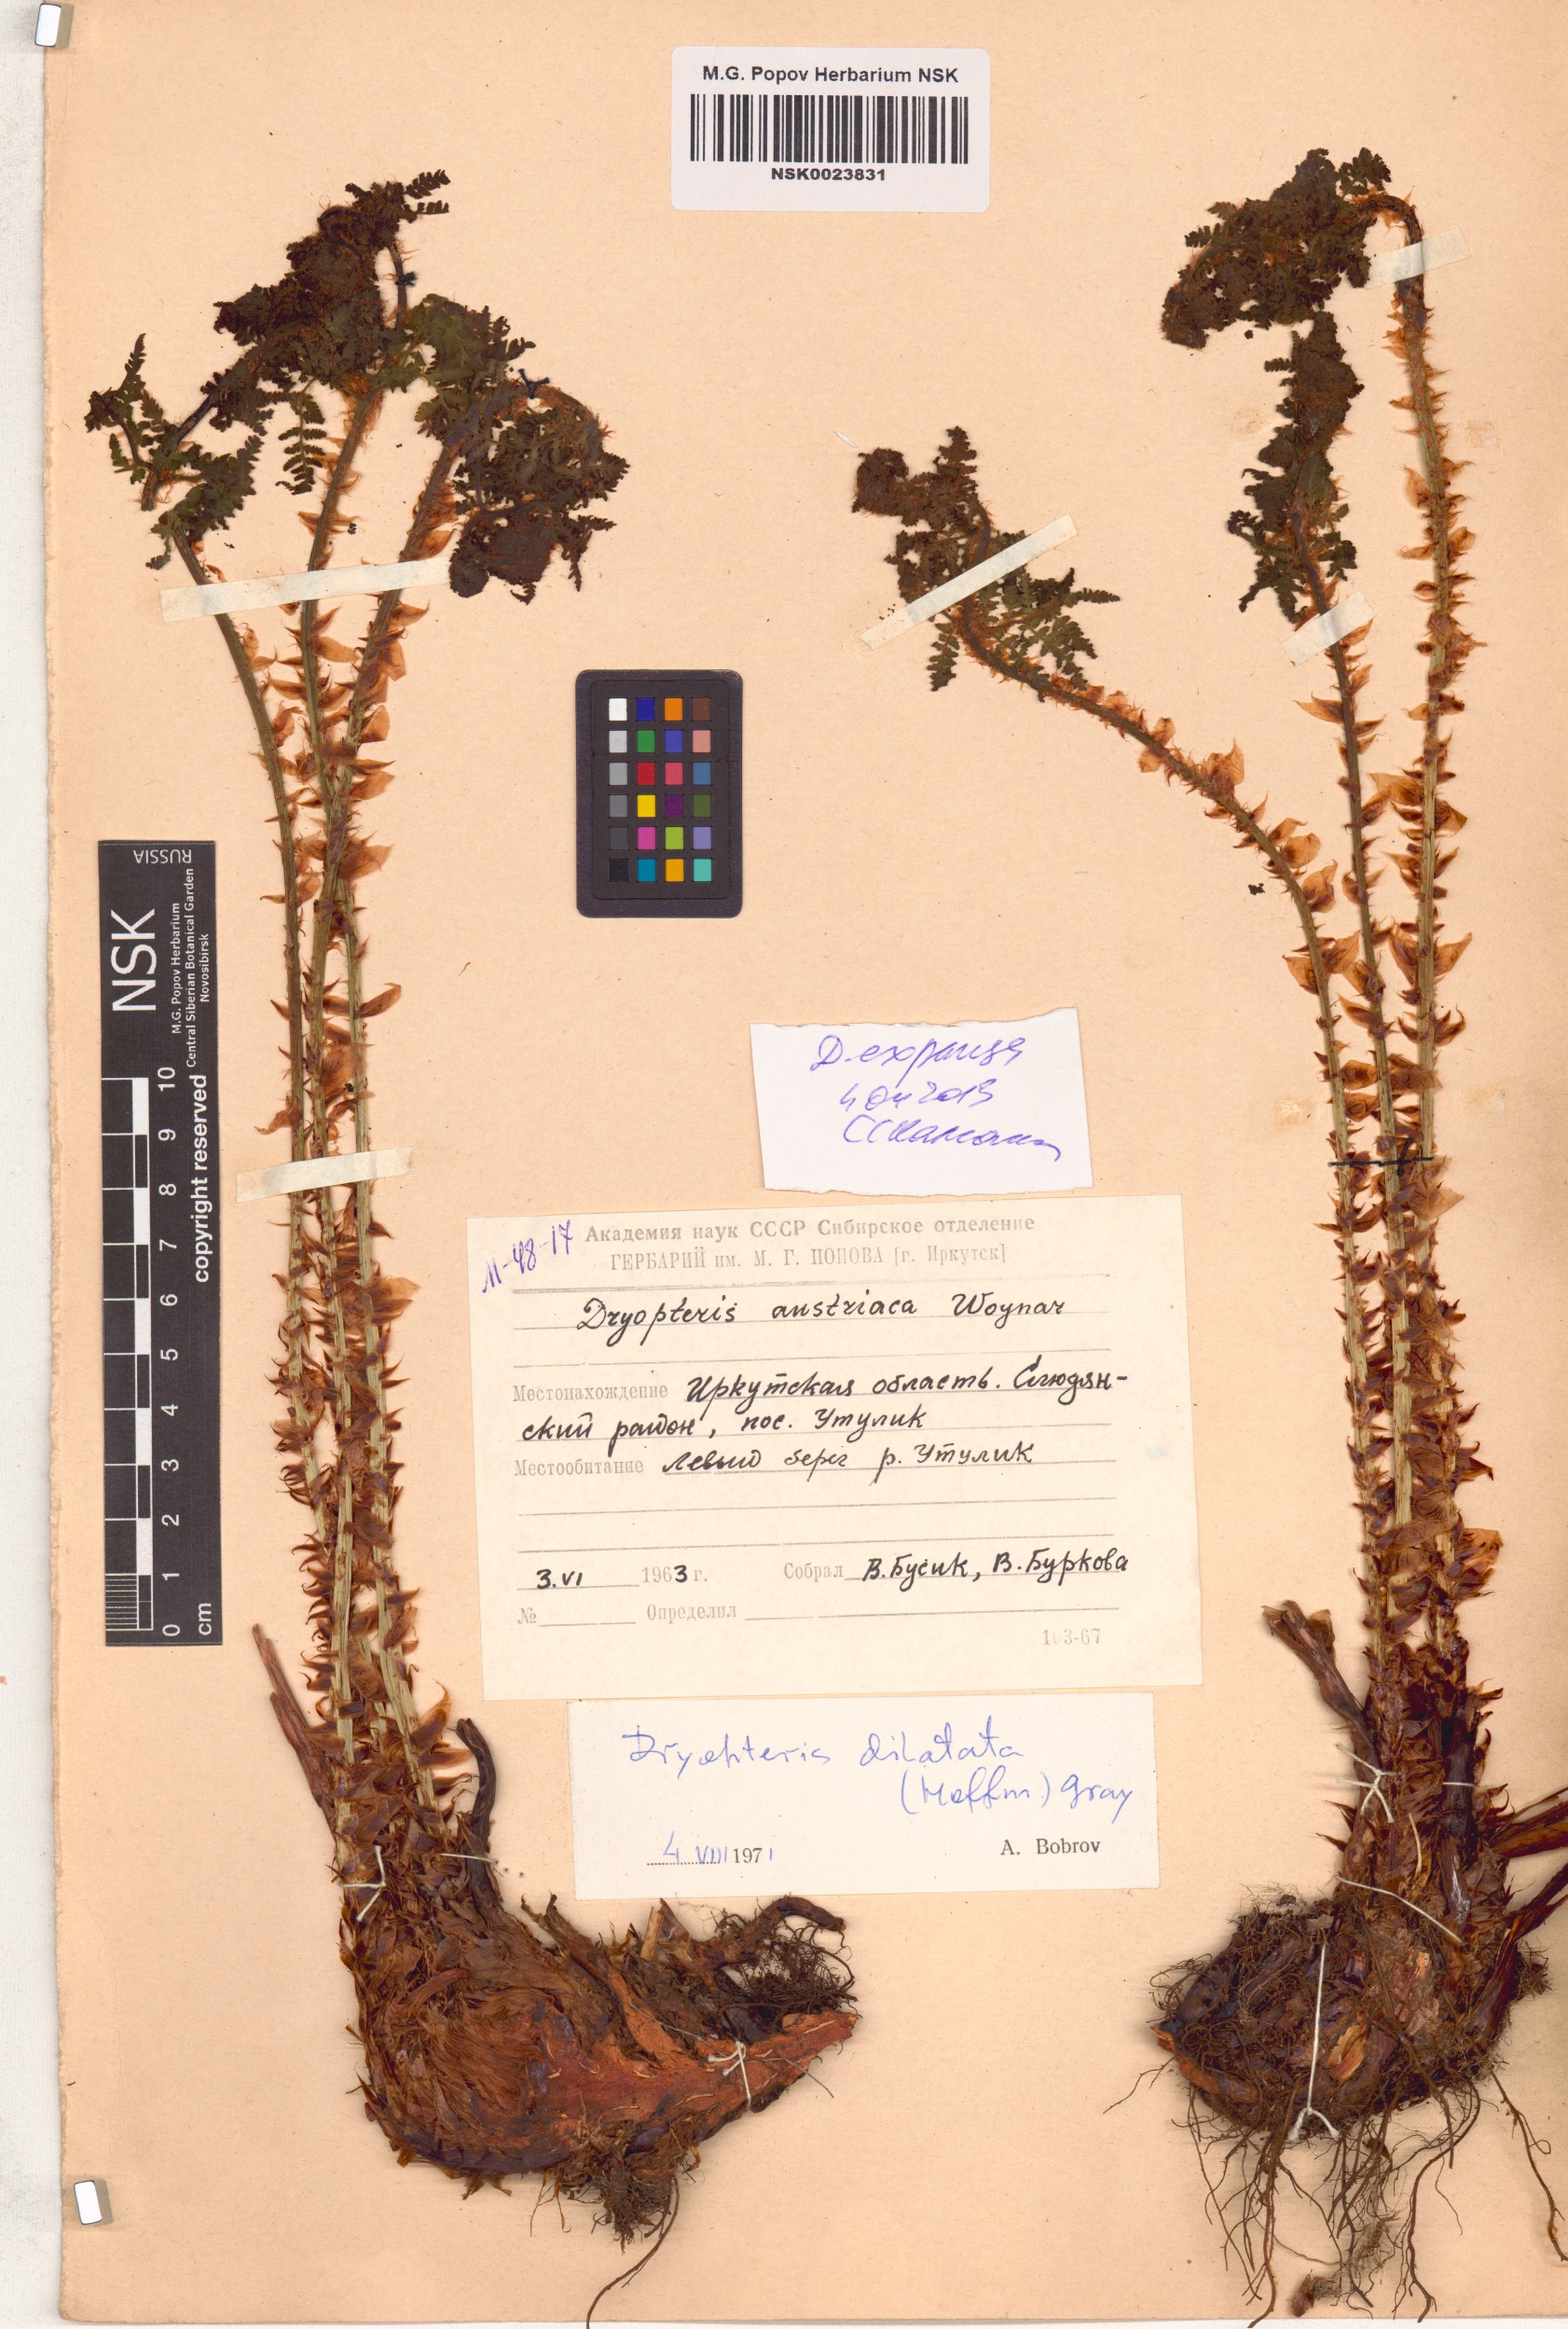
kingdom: Plantae
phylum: Tracheophyta
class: Polypodiopsida
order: Polypodiales
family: Dryopteridaceae
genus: Dryopteris
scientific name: Dryopteris expansa
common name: Northern buckler fern
